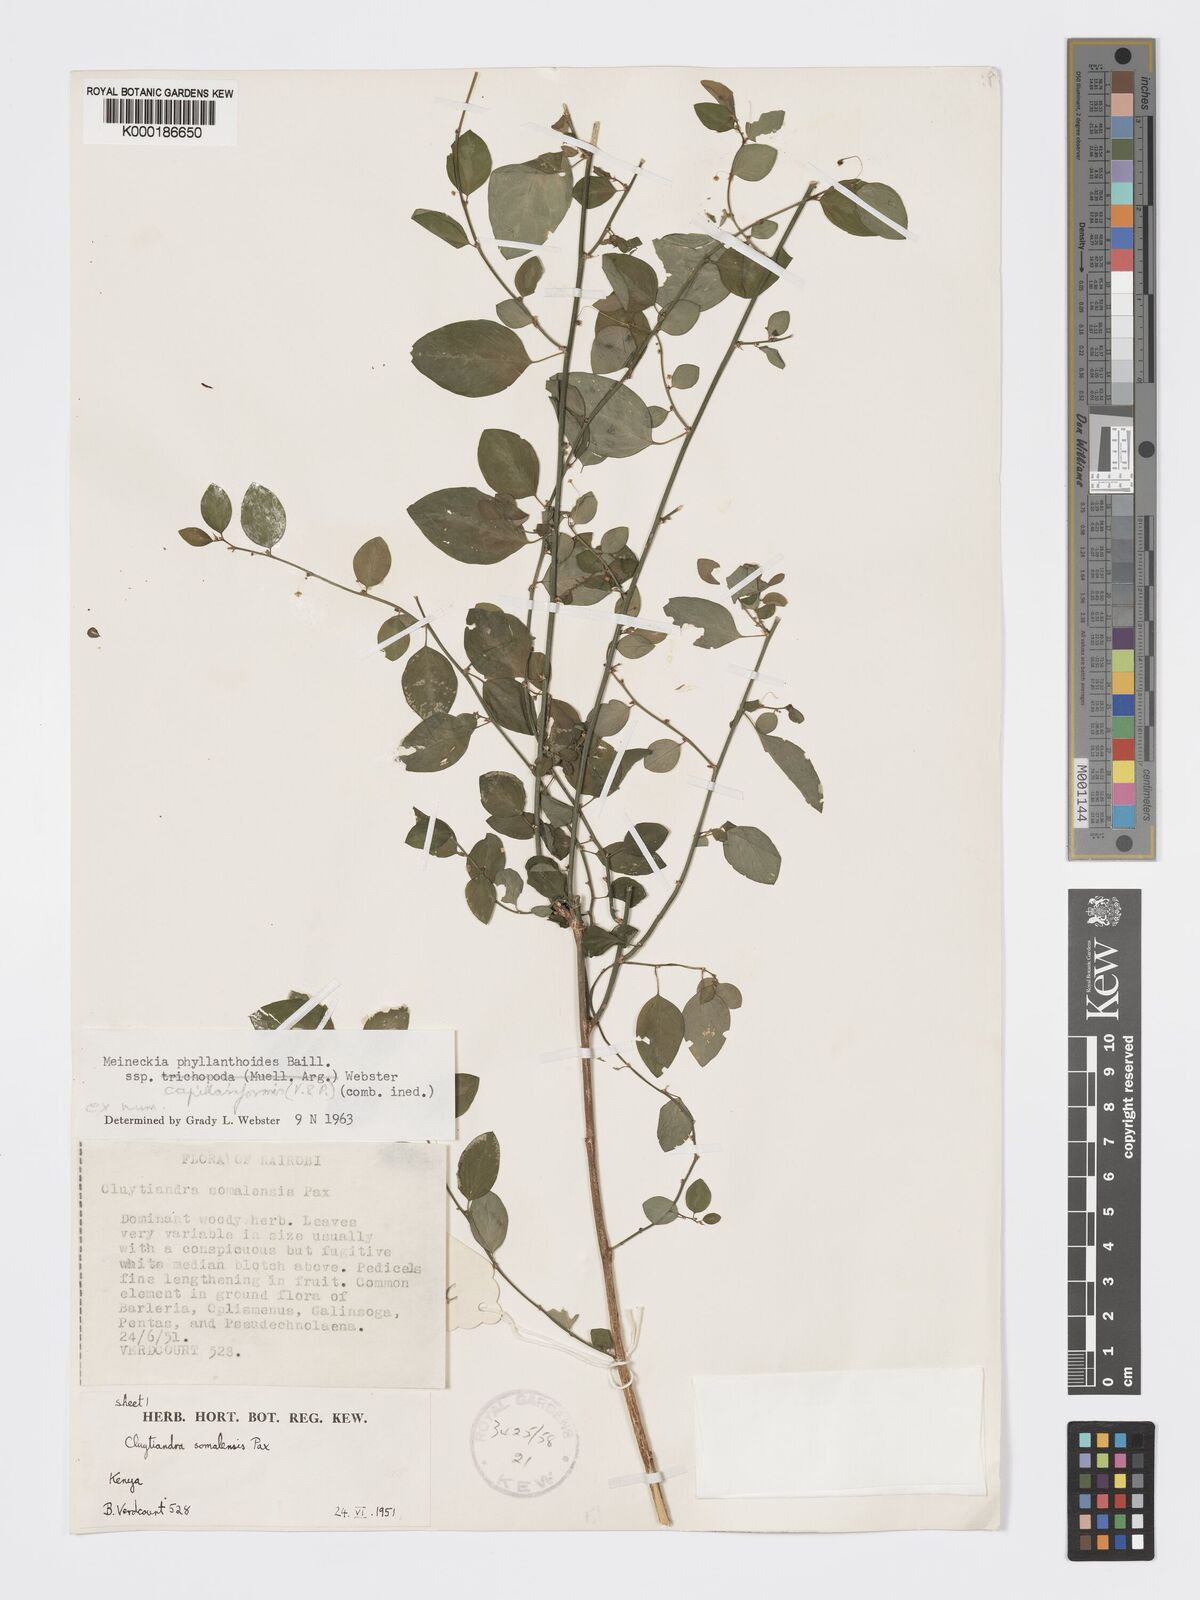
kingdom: Plantae
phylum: Tracheophyta
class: Magnoliopsida
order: Malpighiales
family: Phyllanthaceae
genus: Meineckia
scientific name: Meineckia phyllanthoides
